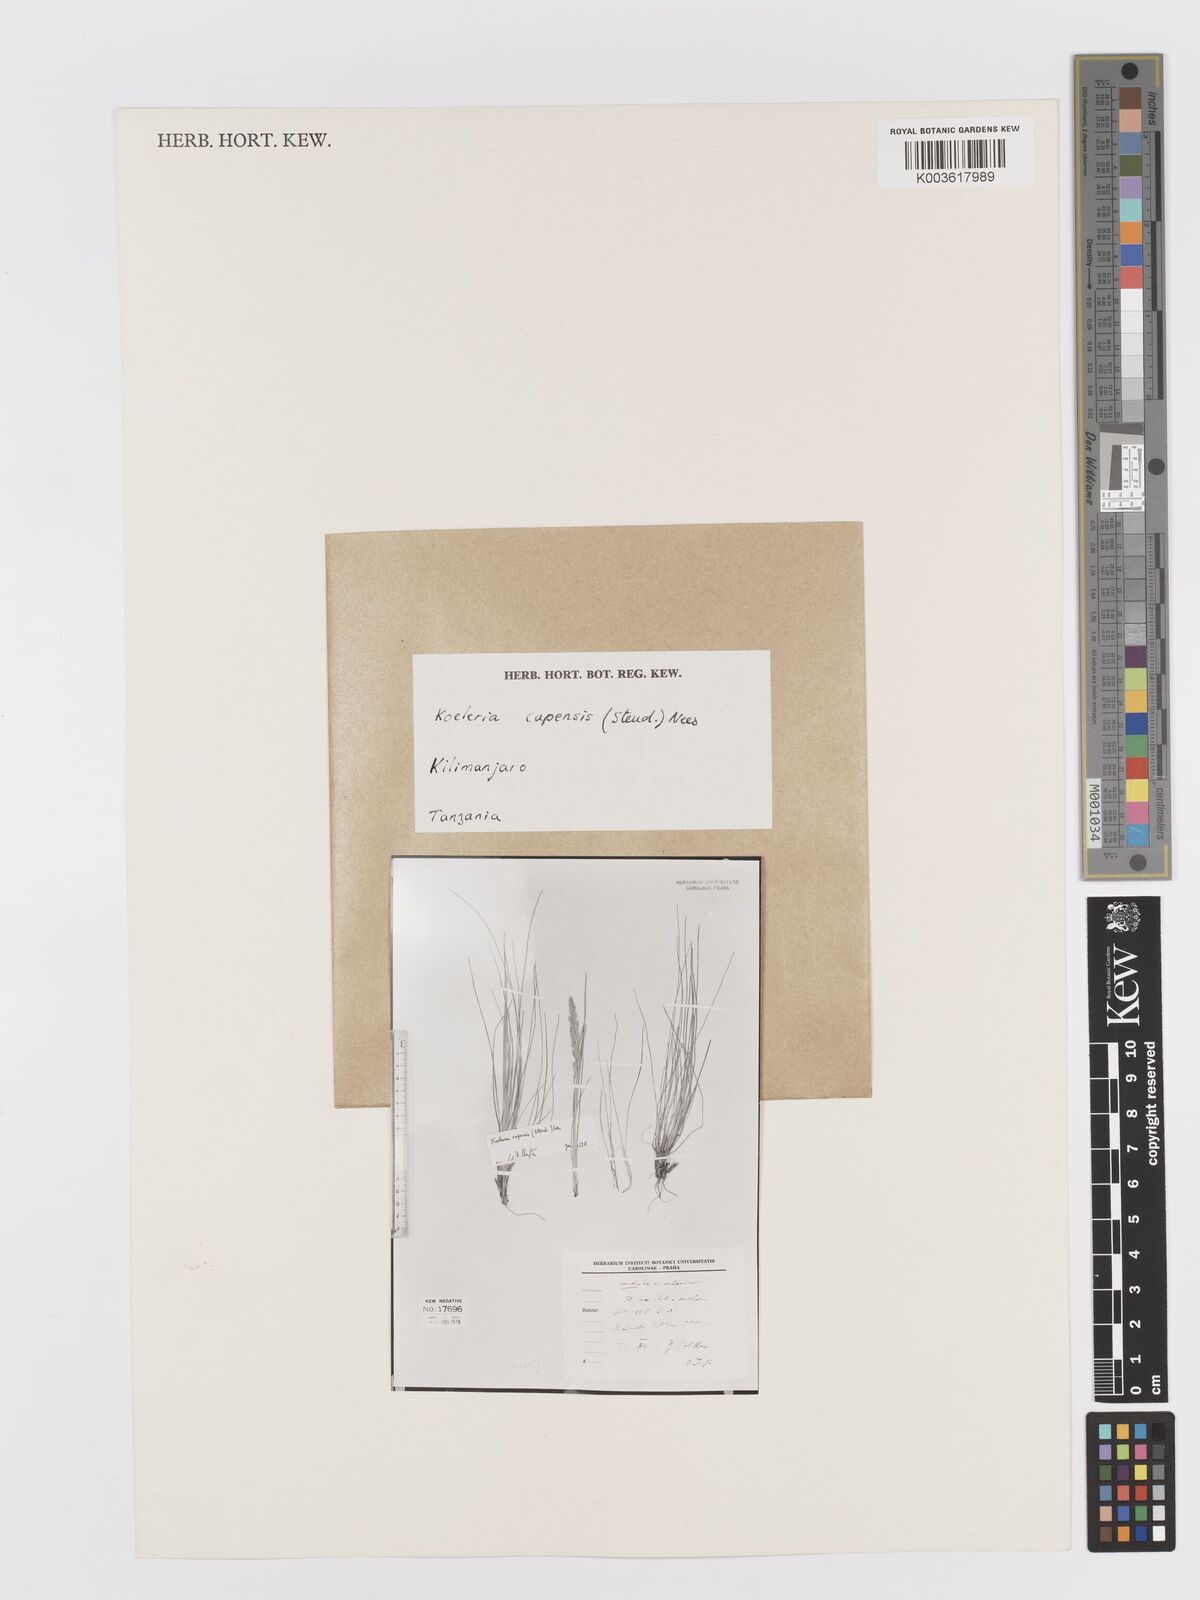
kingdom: Plantae
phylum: Tracheophyta
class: Liliopsida
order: Poales
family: Poaceae
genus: Koeleria
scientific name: Koeleria capensis
